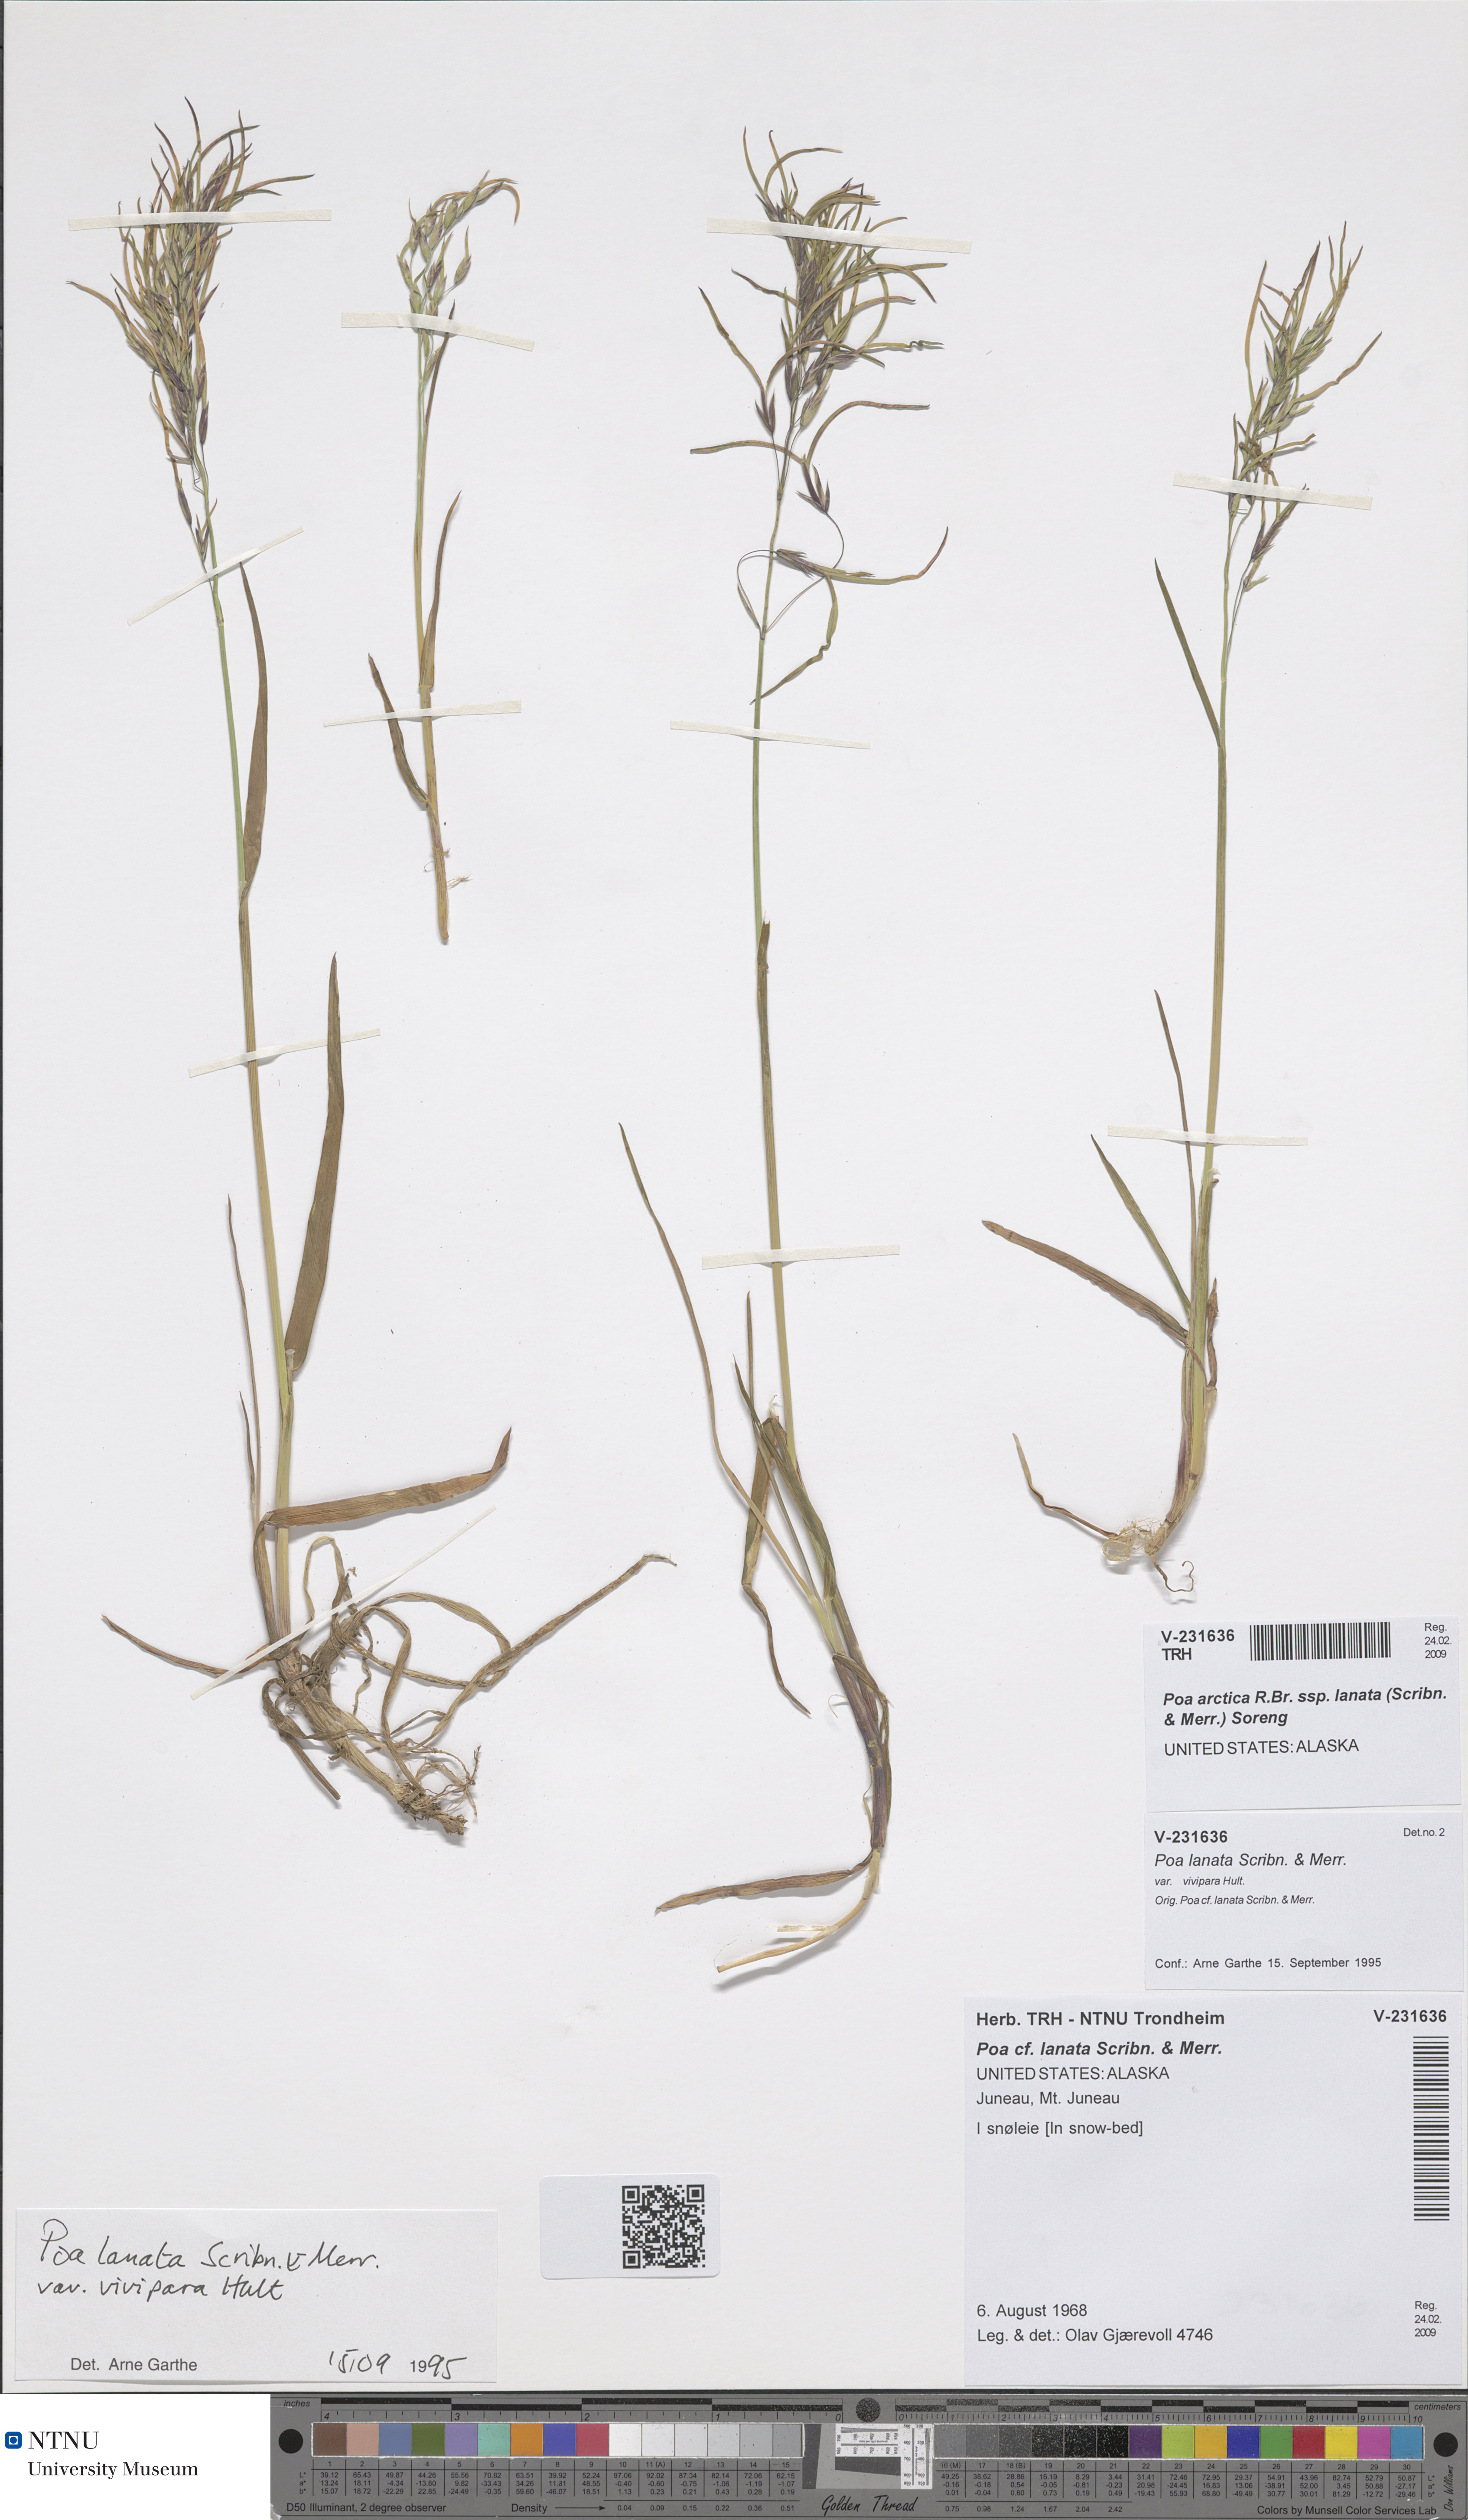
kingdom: Plantae
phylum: Tracheophyta
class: Liliopsida
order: Poales
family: Poaceae
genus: Poa
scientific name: Poa lanata
